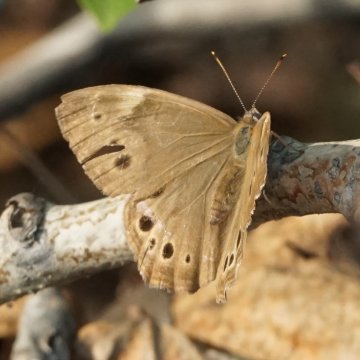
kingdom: Animalia
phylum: Arthropoda
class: Insecta
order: Lepidoptera
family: Nymphalidae
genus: Lethe
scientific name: Lethe anthedon
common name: Northern Pearly-Eye
